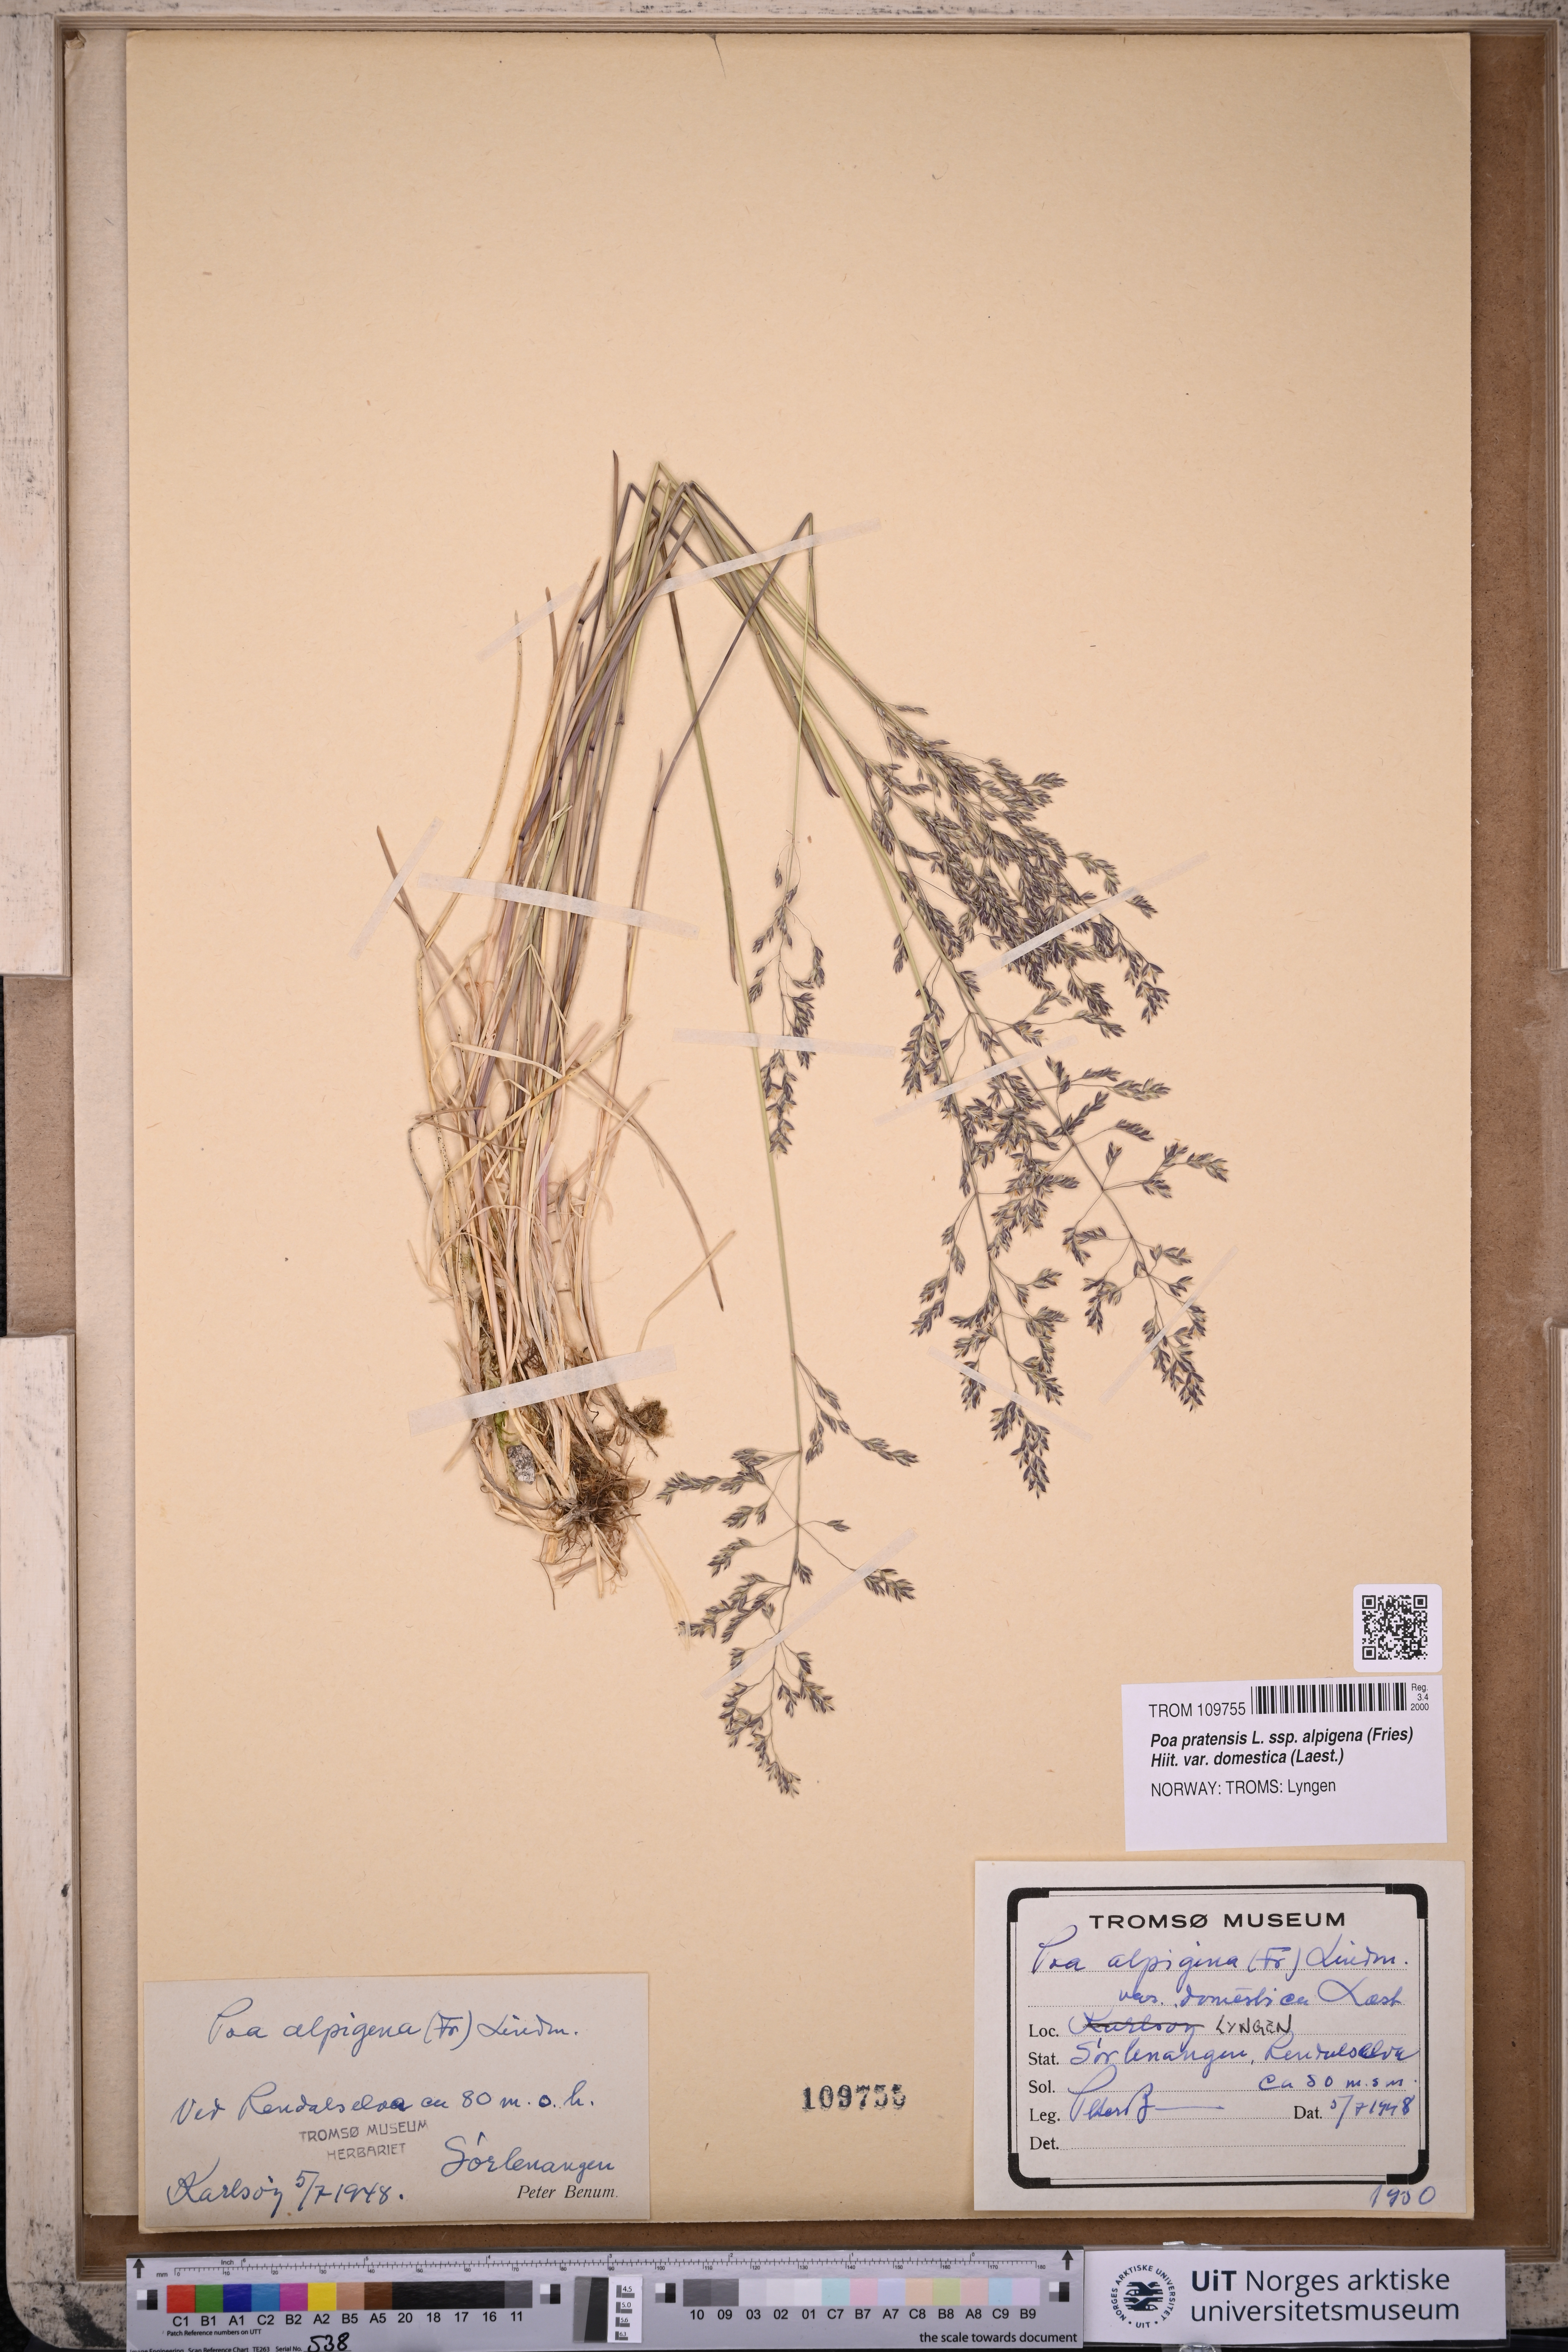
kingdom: Plantae
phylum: Tracheophyta
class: Liliopsida
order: Poales
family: Poaceae
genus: Poa
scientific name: Poa pratensis
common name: Kentucky bluegrass
